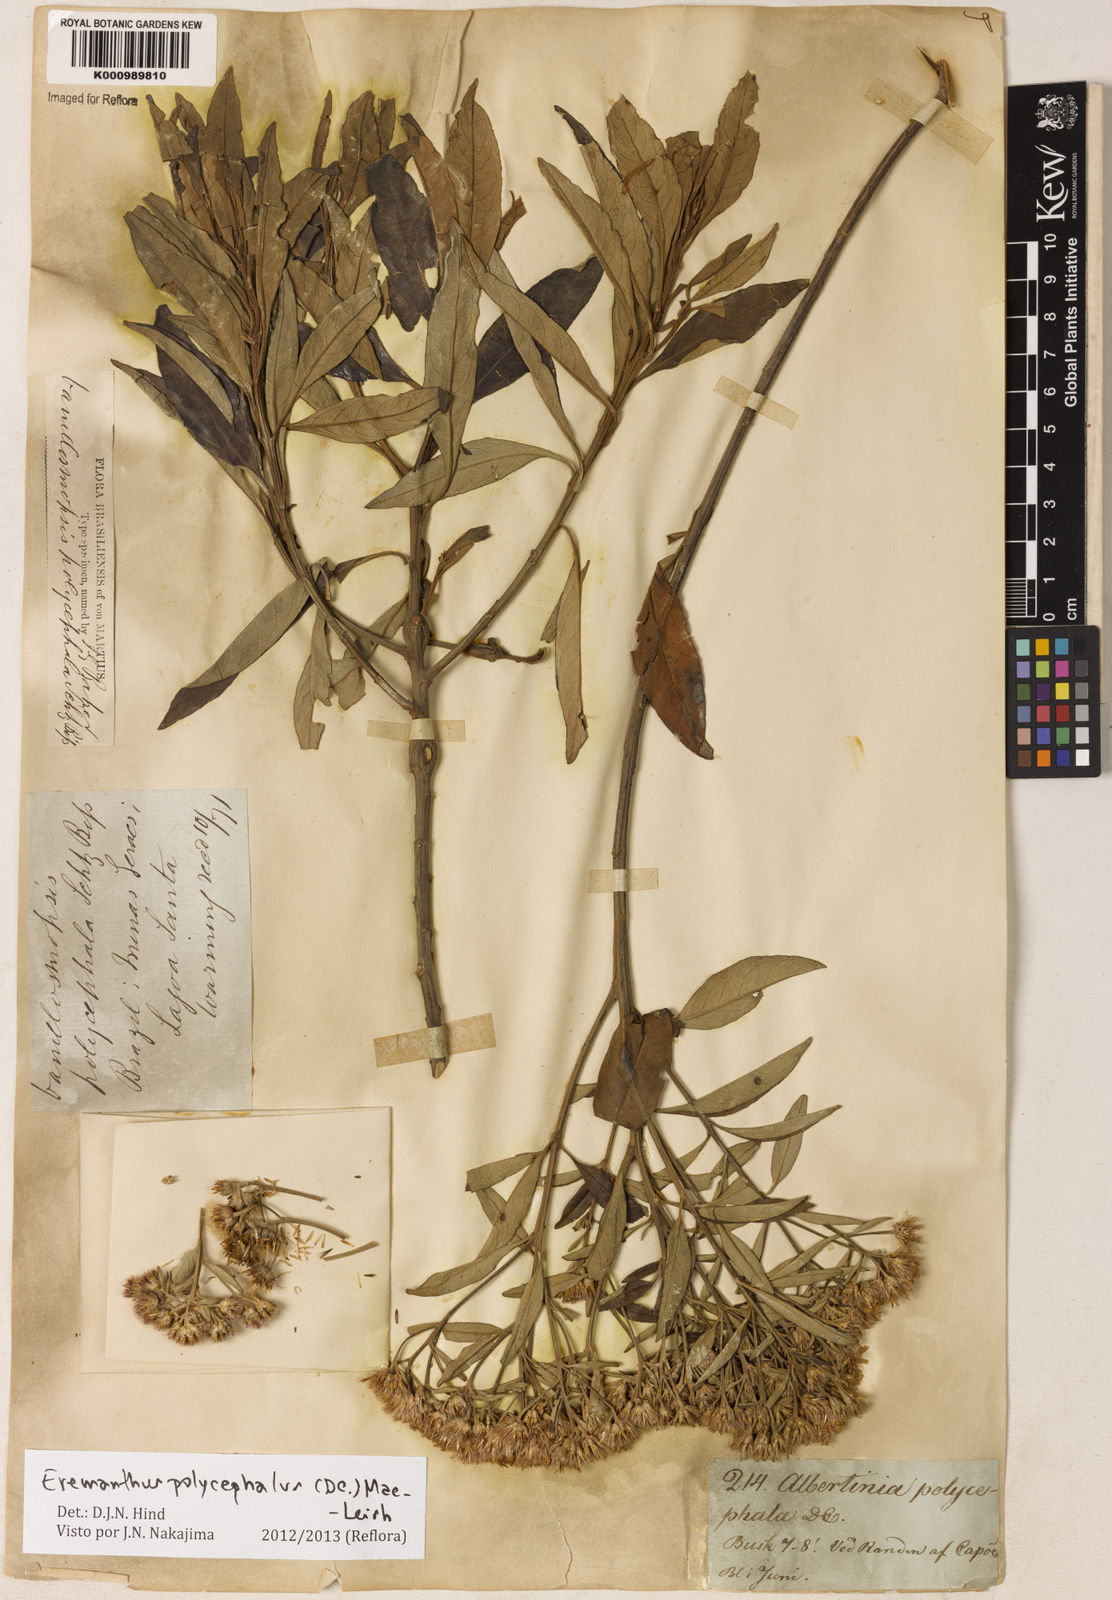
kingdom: Plantae
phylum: Tracheophyta
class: Magnoliopsida
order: Asterales
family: Asteraceae
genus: Eremanthus
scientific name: Eremanthus polycephalus
